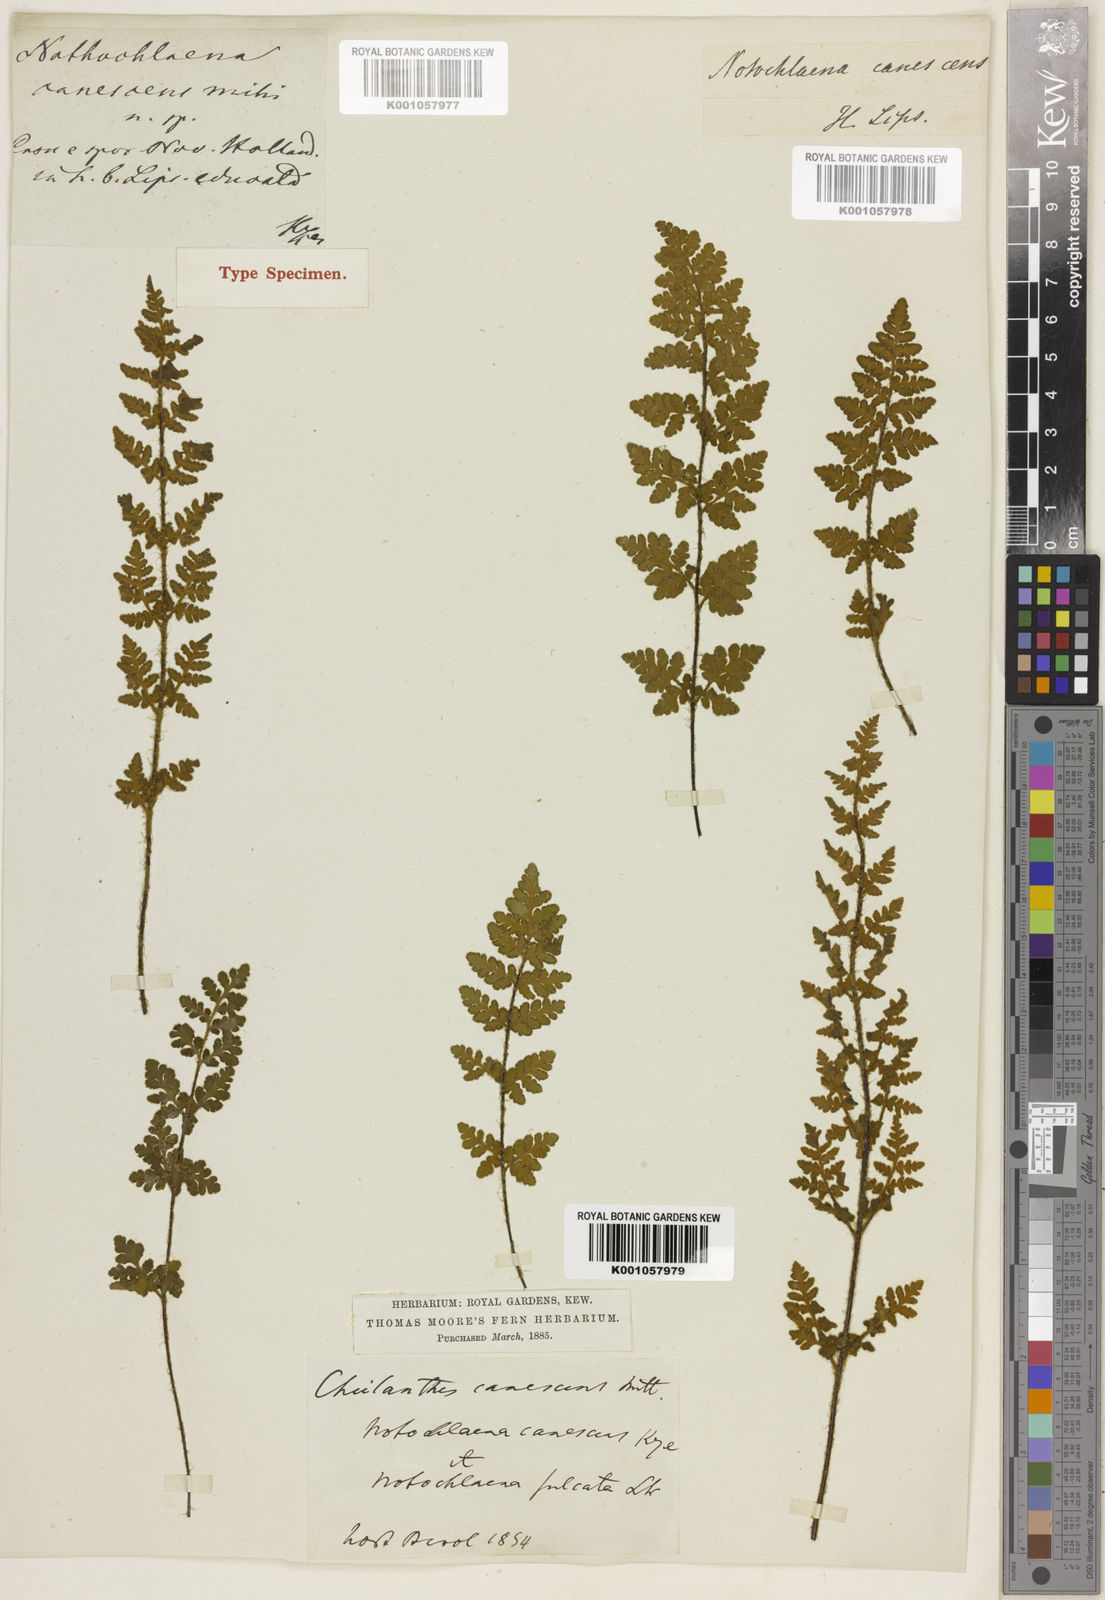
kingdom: Plantae
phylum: Tracheophyta
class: Polypodiopsida
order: Polypodiales
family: Woodsiaceae
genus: Physematium
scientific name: Physematium canescens
